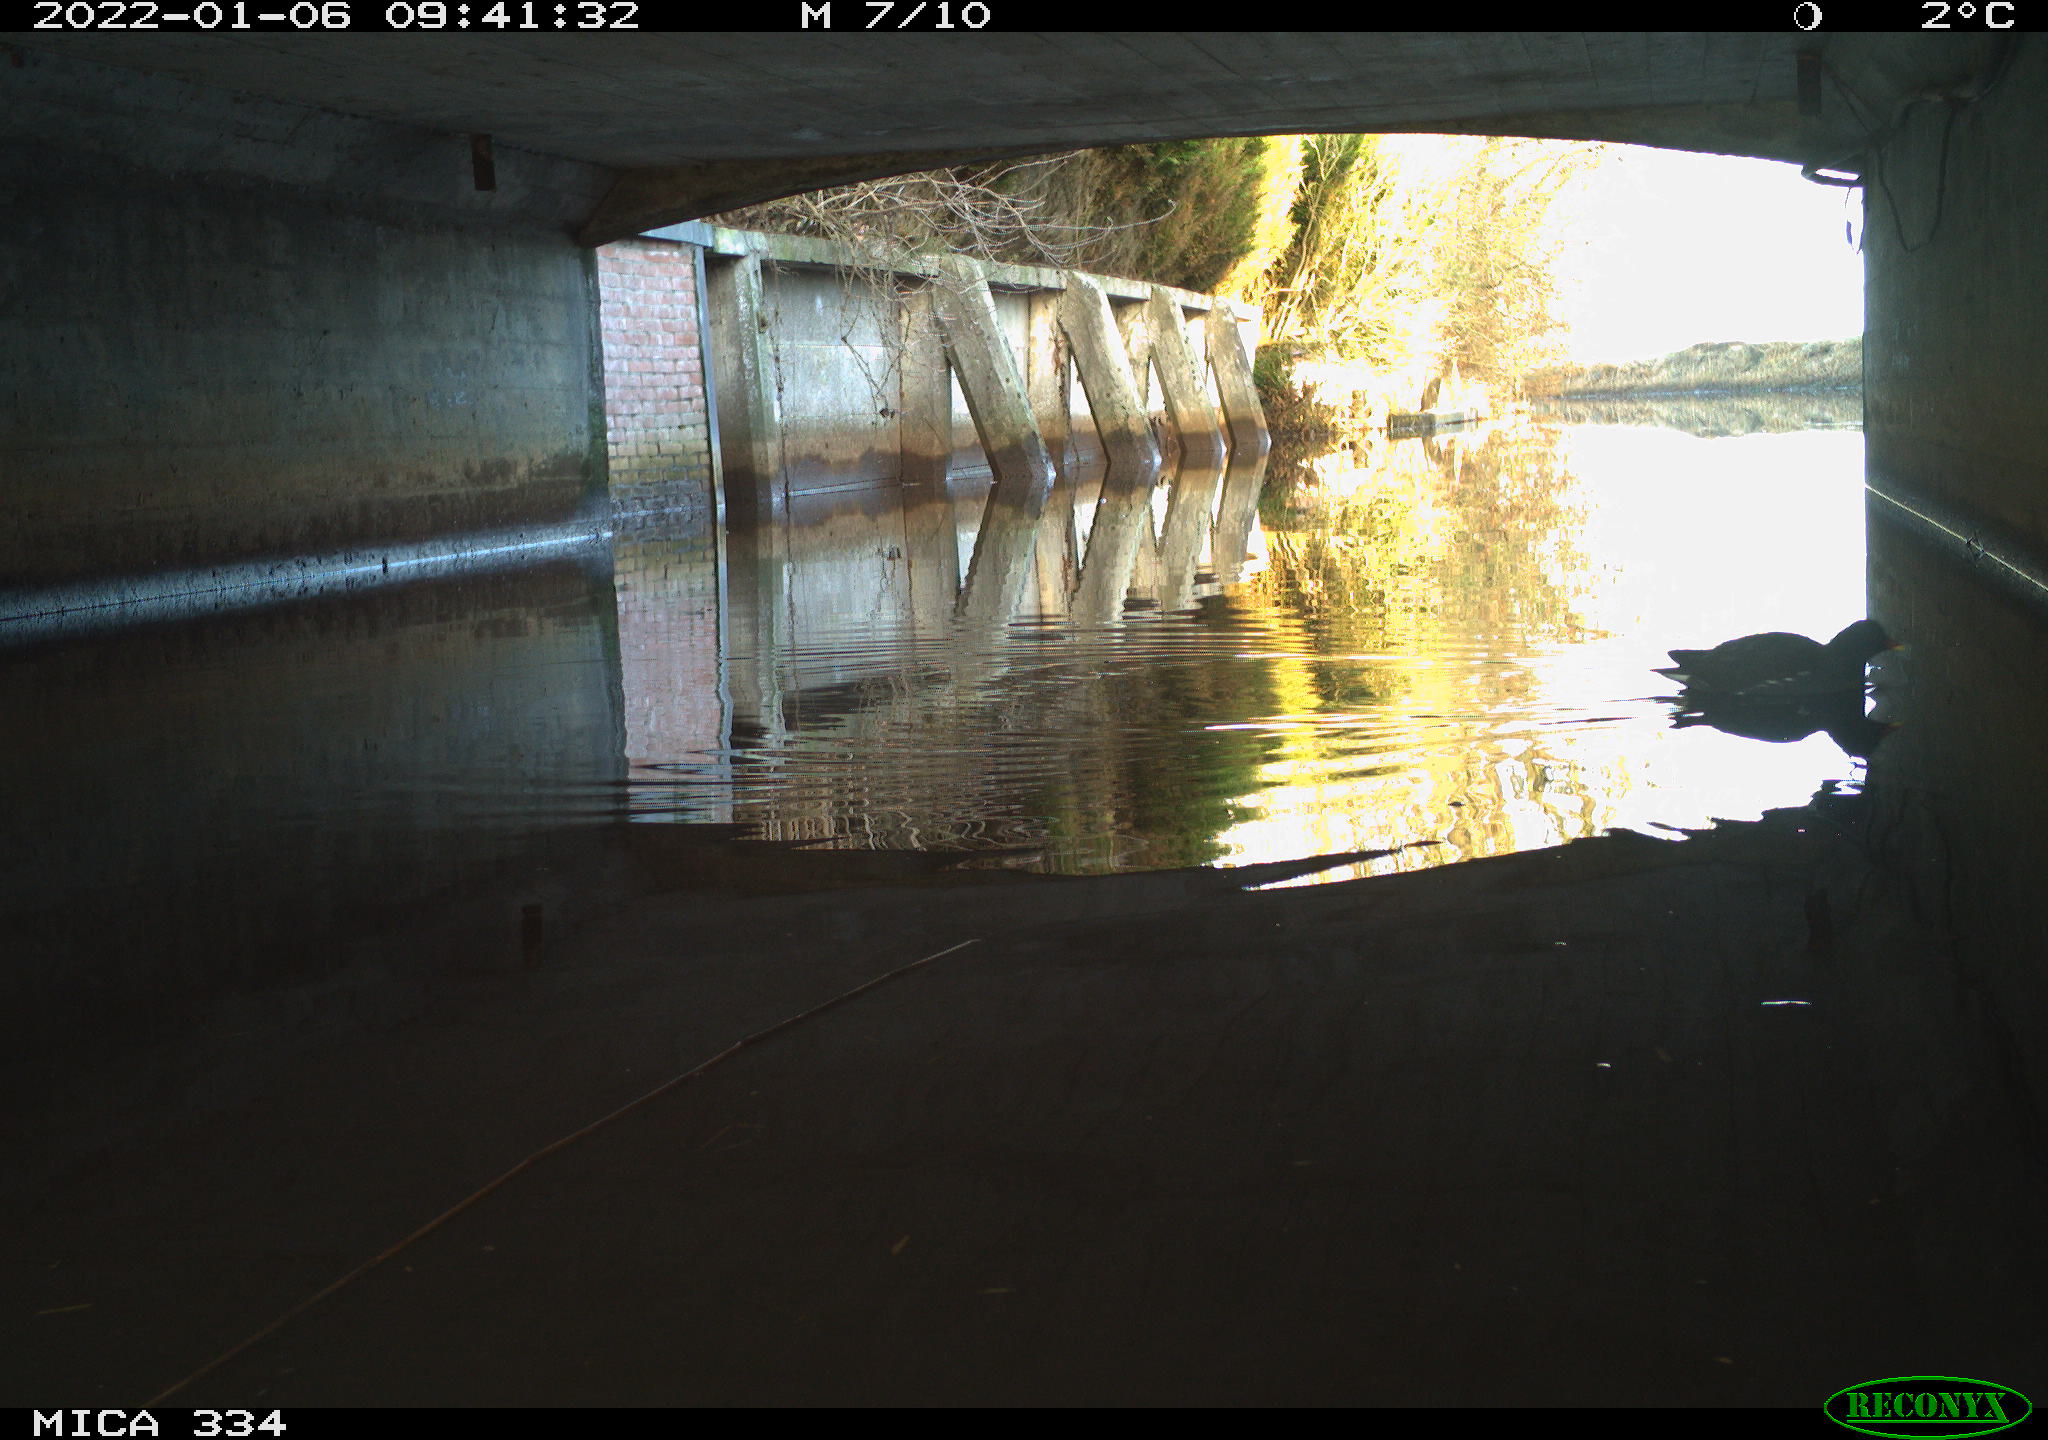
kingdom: Animalia
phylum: Chordata
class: Aves
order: Gruiformes
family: Rallidae
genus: Gallinula
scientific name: Gallinula chloropus
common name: Common moorhen
